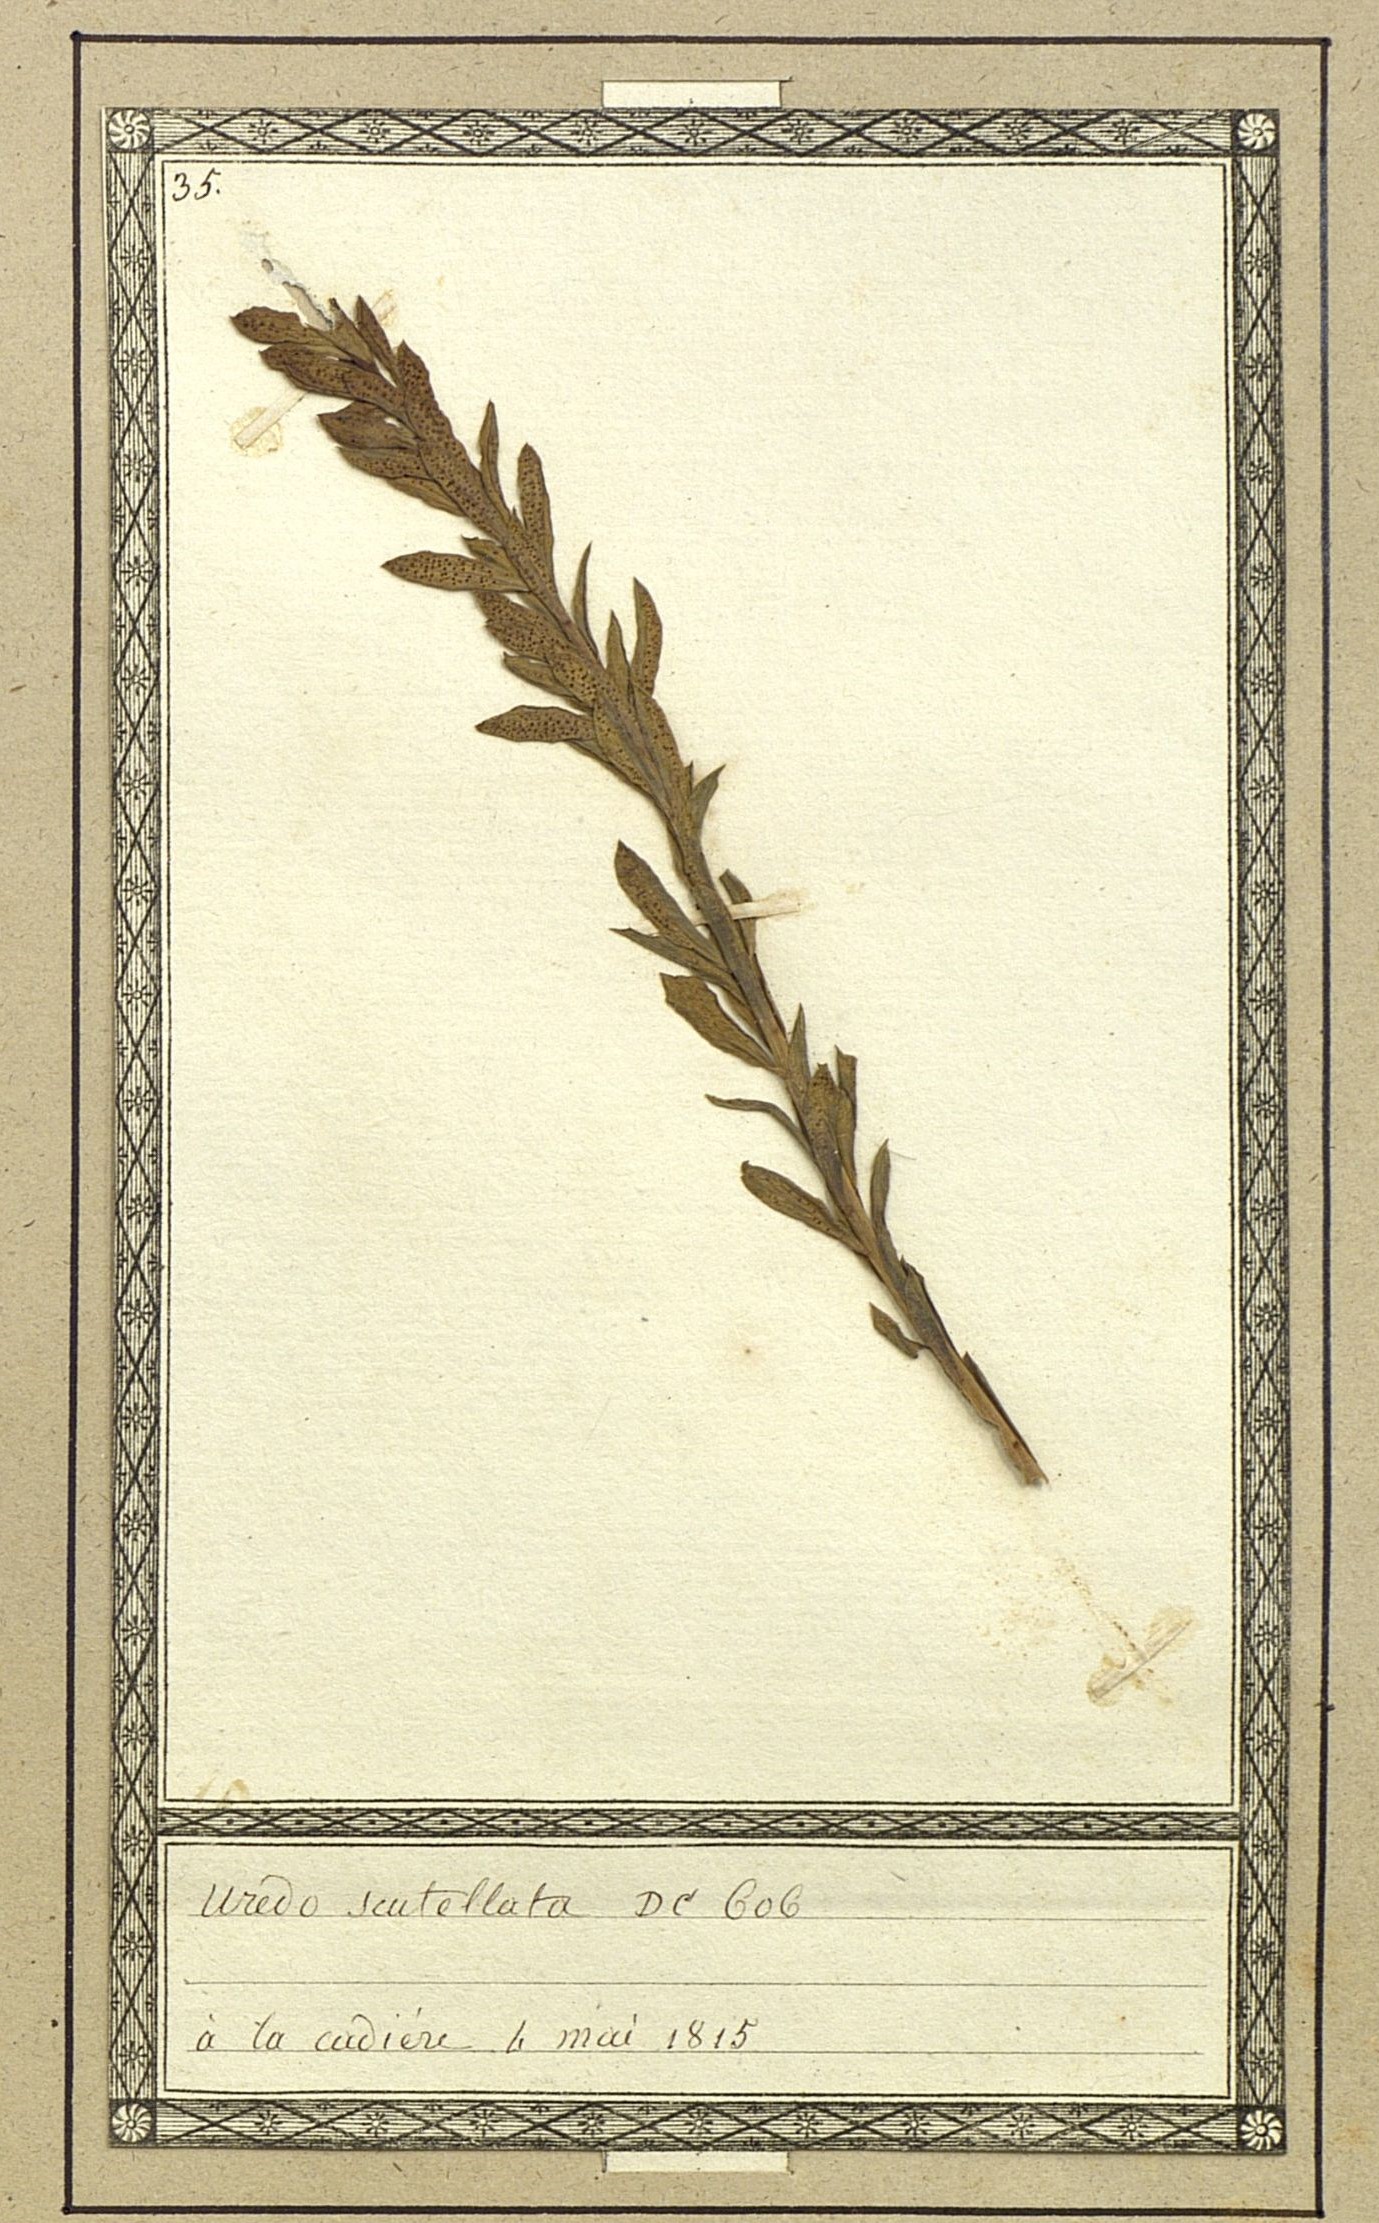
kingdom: Fungi
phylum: Basidiomycota
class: Pucciniomycetes
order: Pucciniales
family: Pucciniaceae
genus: Uromyces
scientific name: Uromyces scutellatus
